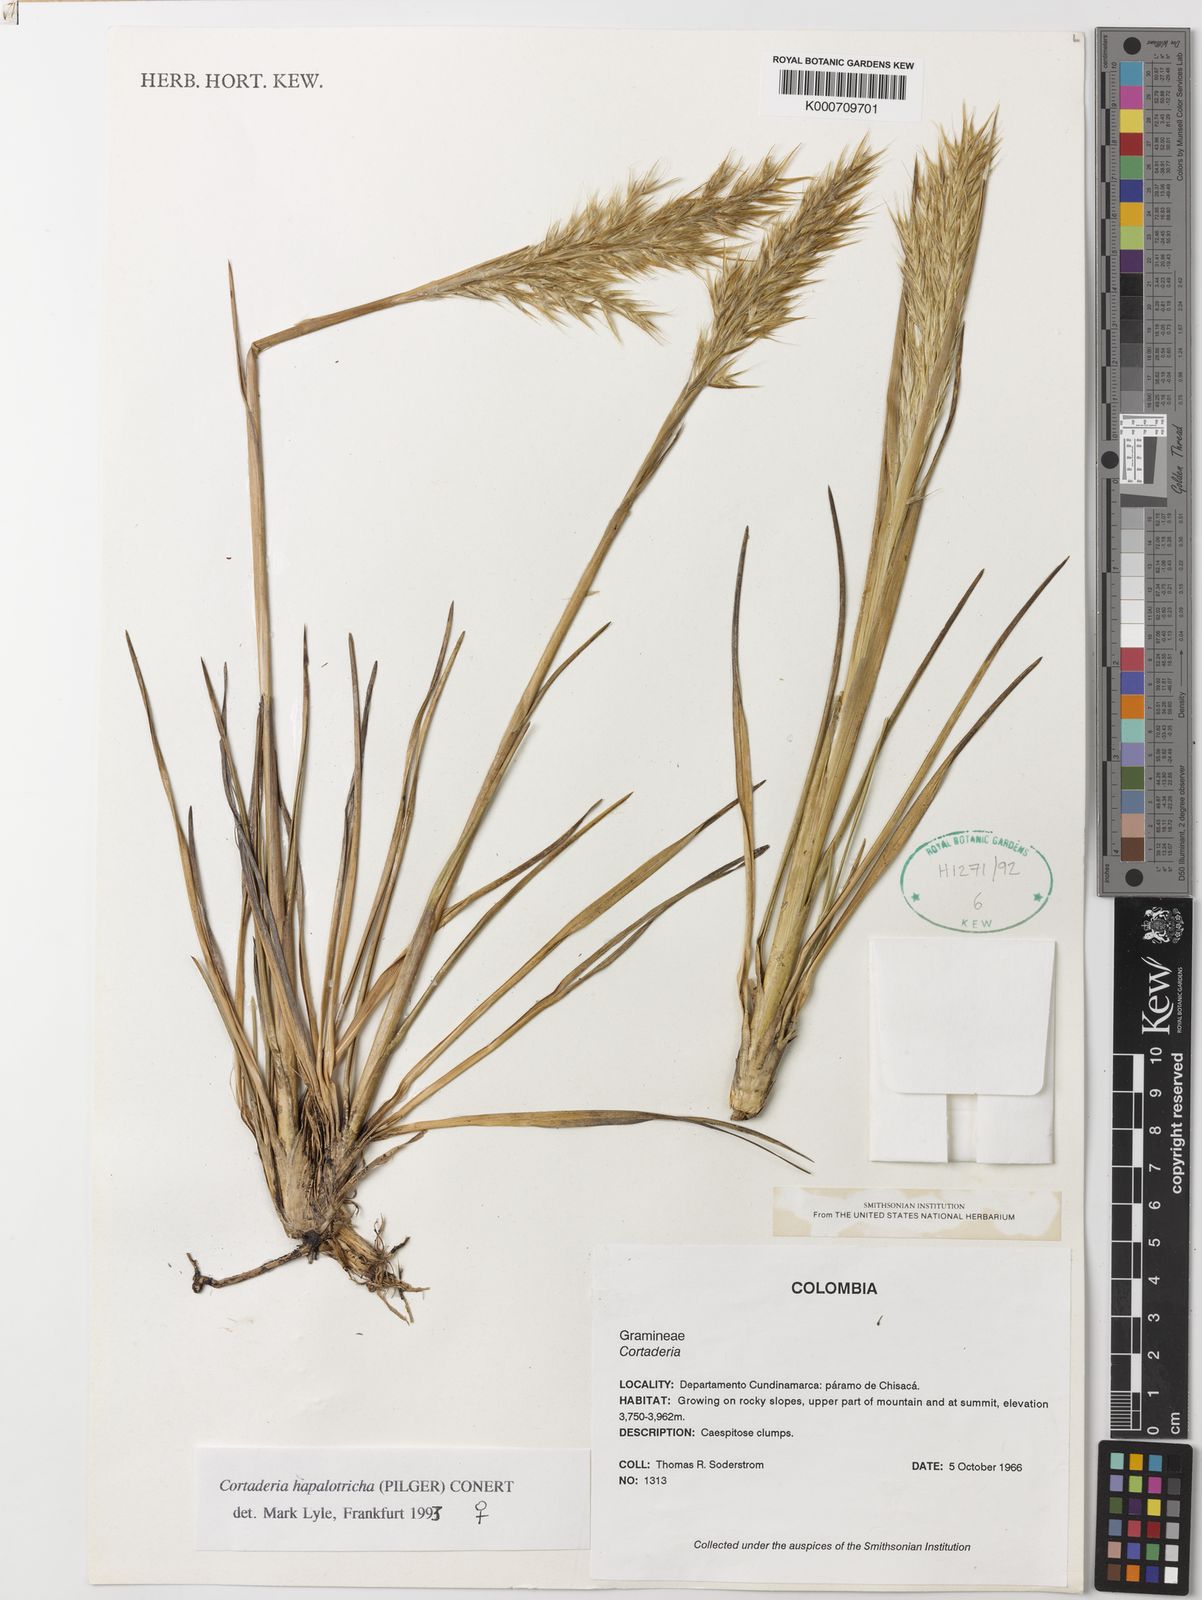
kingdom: Plantae
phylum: Tracheophyta
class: Liliopsida
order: Poales
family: Poaceae
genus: Cortaderia
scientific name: Cortaderia hapalotricha
